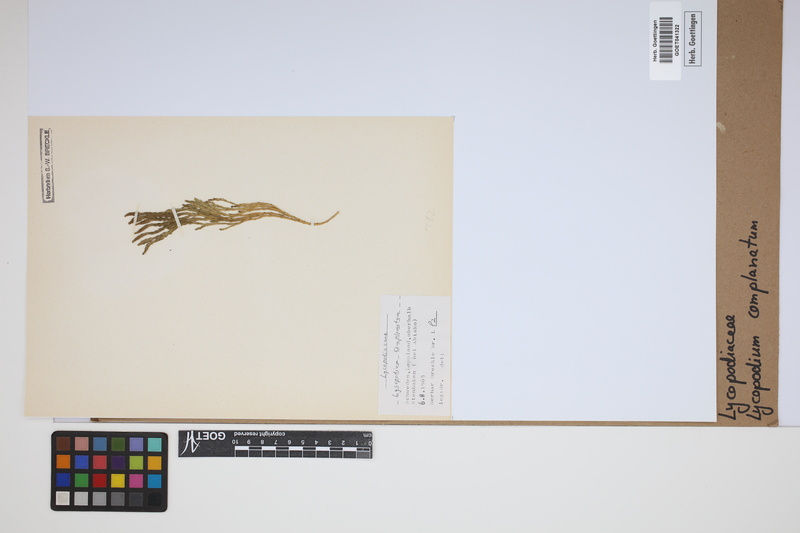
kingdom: Plantae
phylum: Tracheophyta
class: Lycopodiopsida
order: Lycopodiales
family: Lycopodiaceae
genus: Diphasiastrum
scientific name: Diphasiastrum complanatum
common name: Northern running-pine
